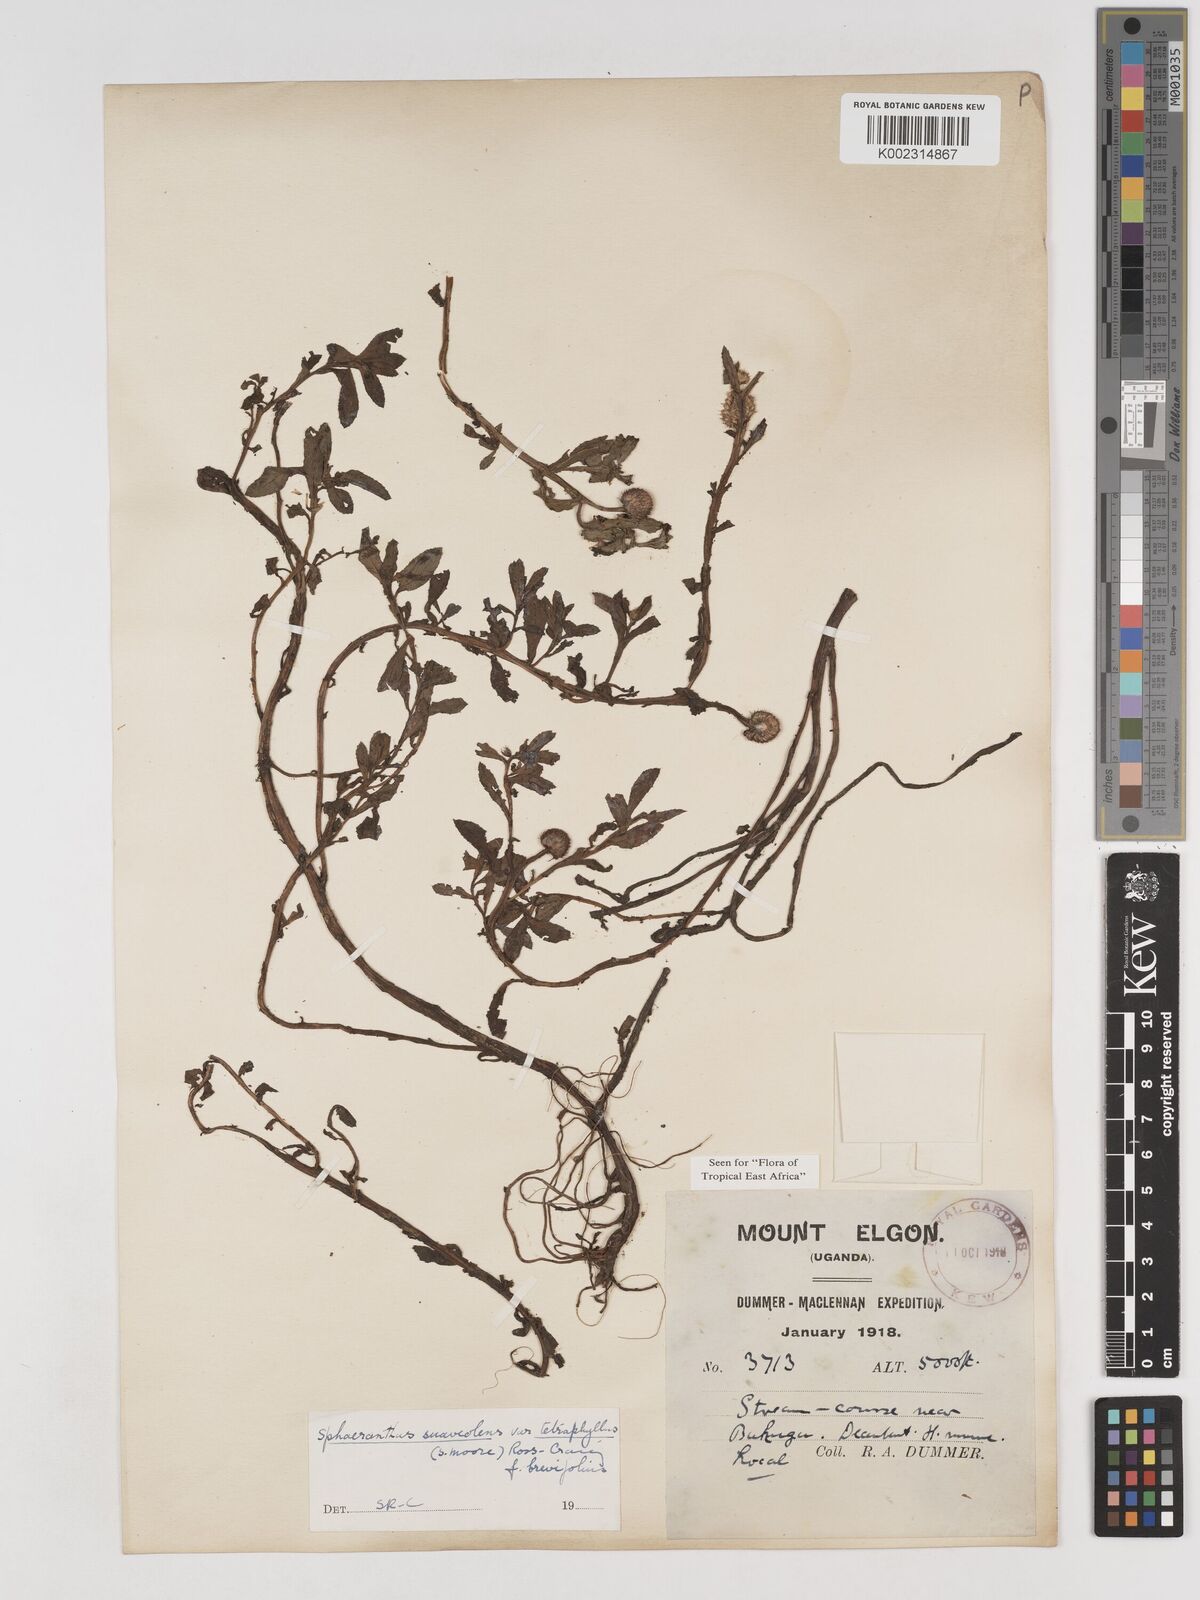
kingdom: Plantae
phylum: Tracheophyta
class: Magnoliopsida
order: Asterales
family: Asteraceae
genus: Sphaeranthus
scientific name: Sphaeranthus suaveolens
